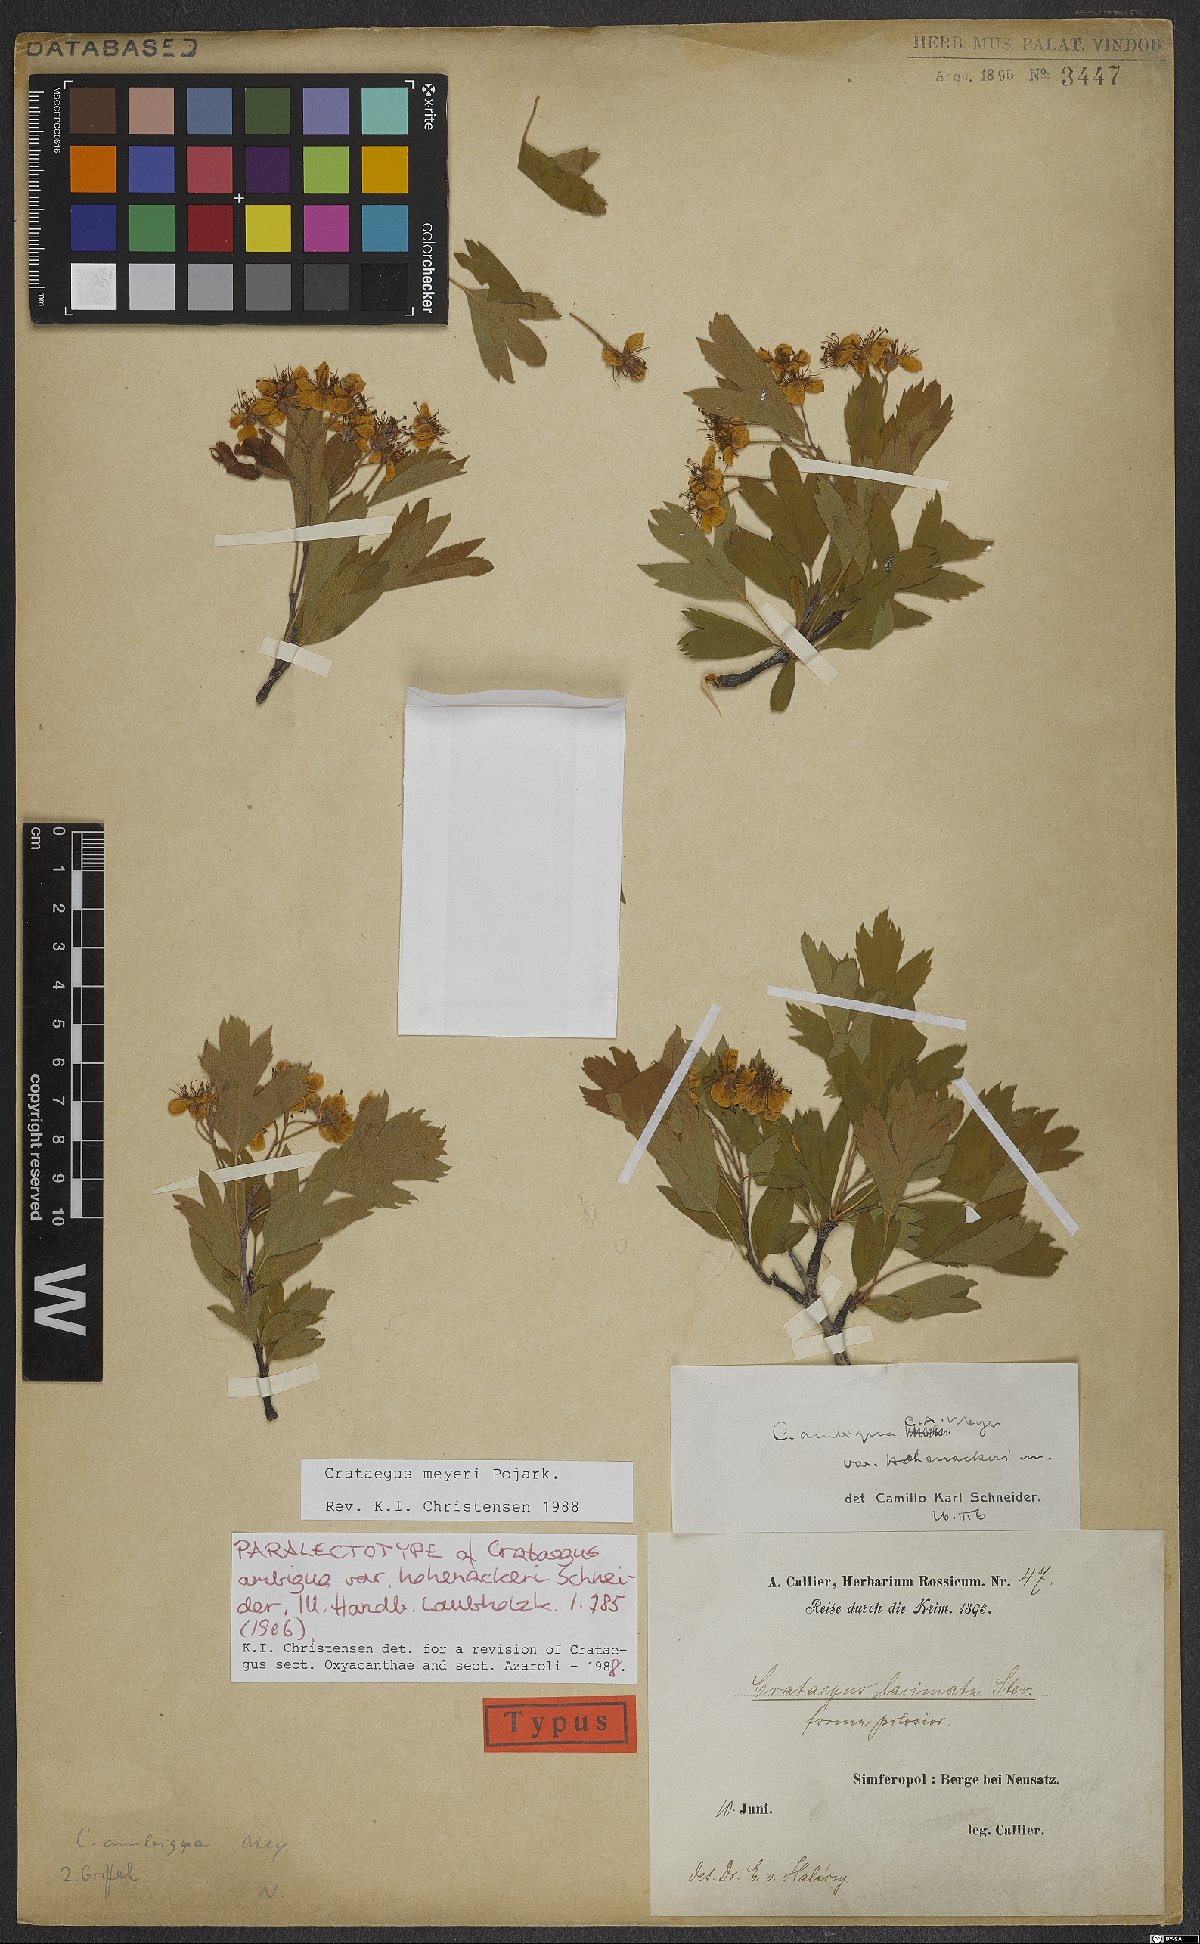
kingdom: Plantae
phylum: Tracheophyta
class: Magnoliopsida
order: Rosales
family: Rosaceae
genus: Crataegus
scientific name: Crataegus meyeri
